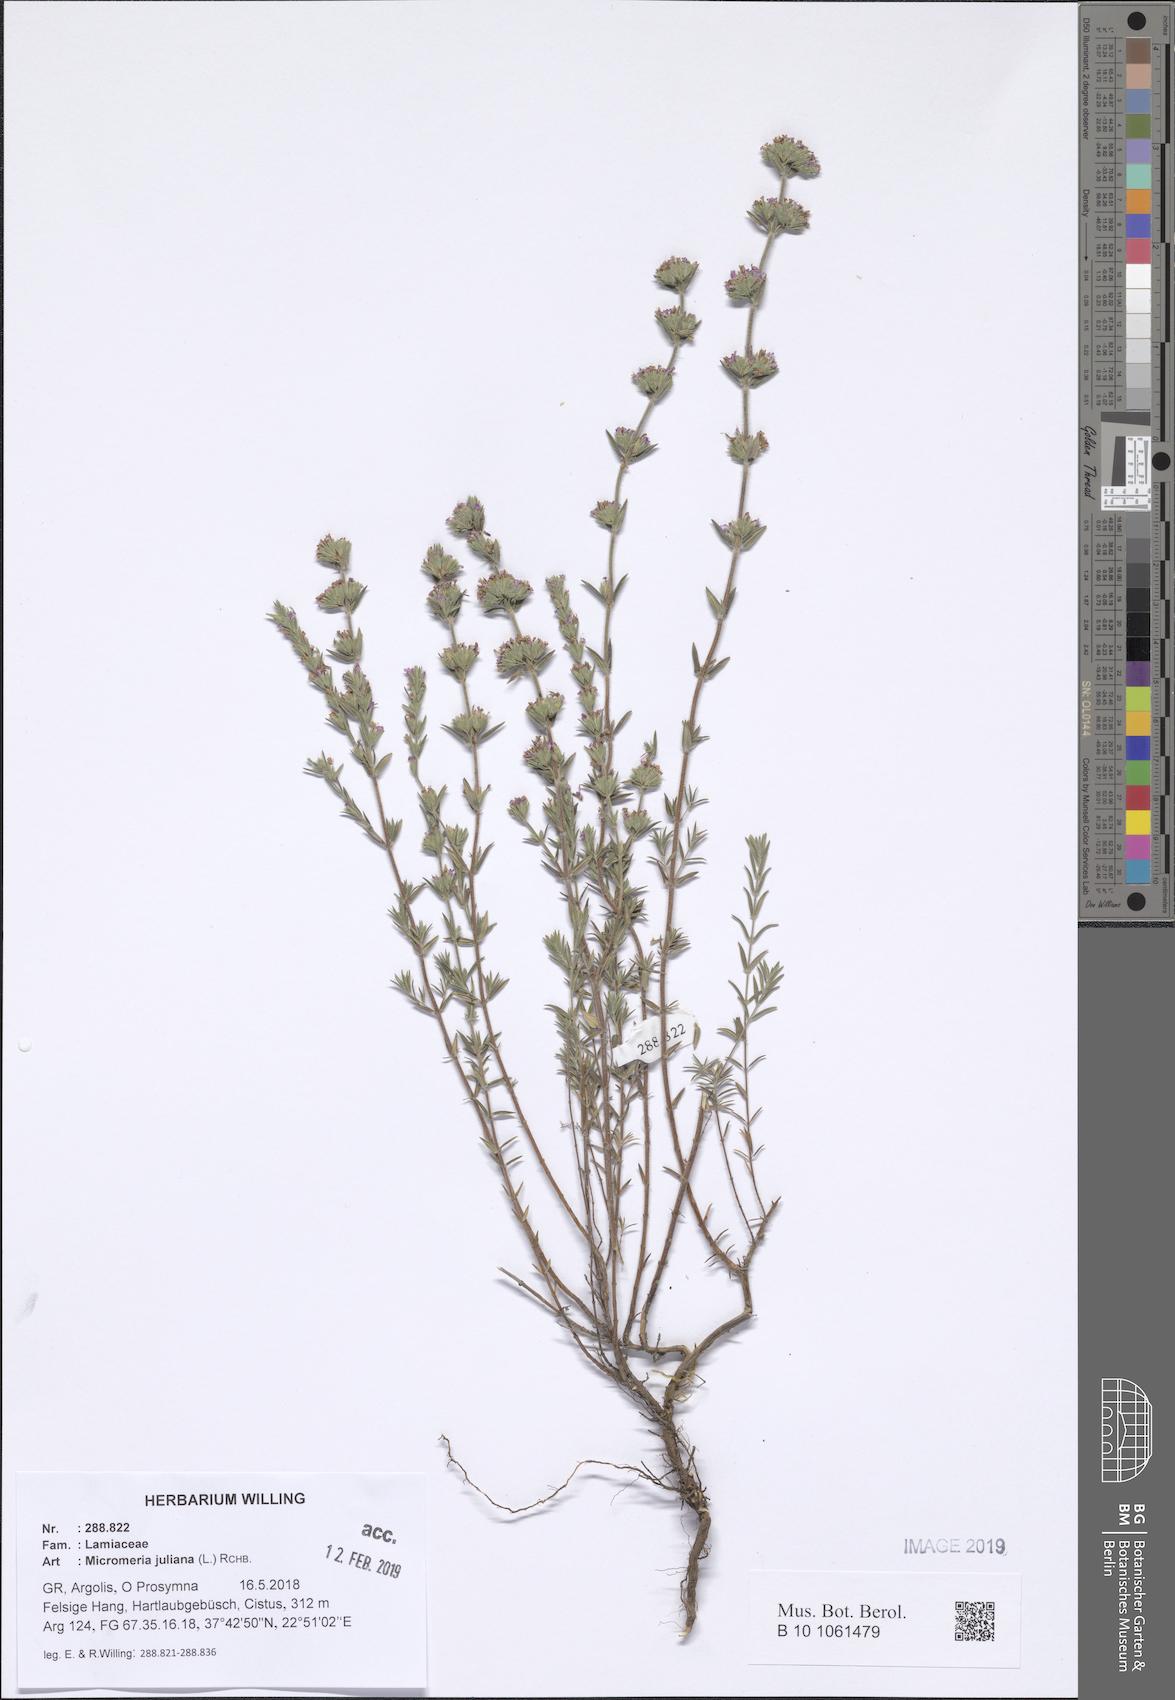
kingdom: Plantae
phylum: Tracheophyta
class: Magnoliopsida
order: Lamiales
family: Lamiaceae
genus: Micromeria
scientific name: Micromeria juliana
